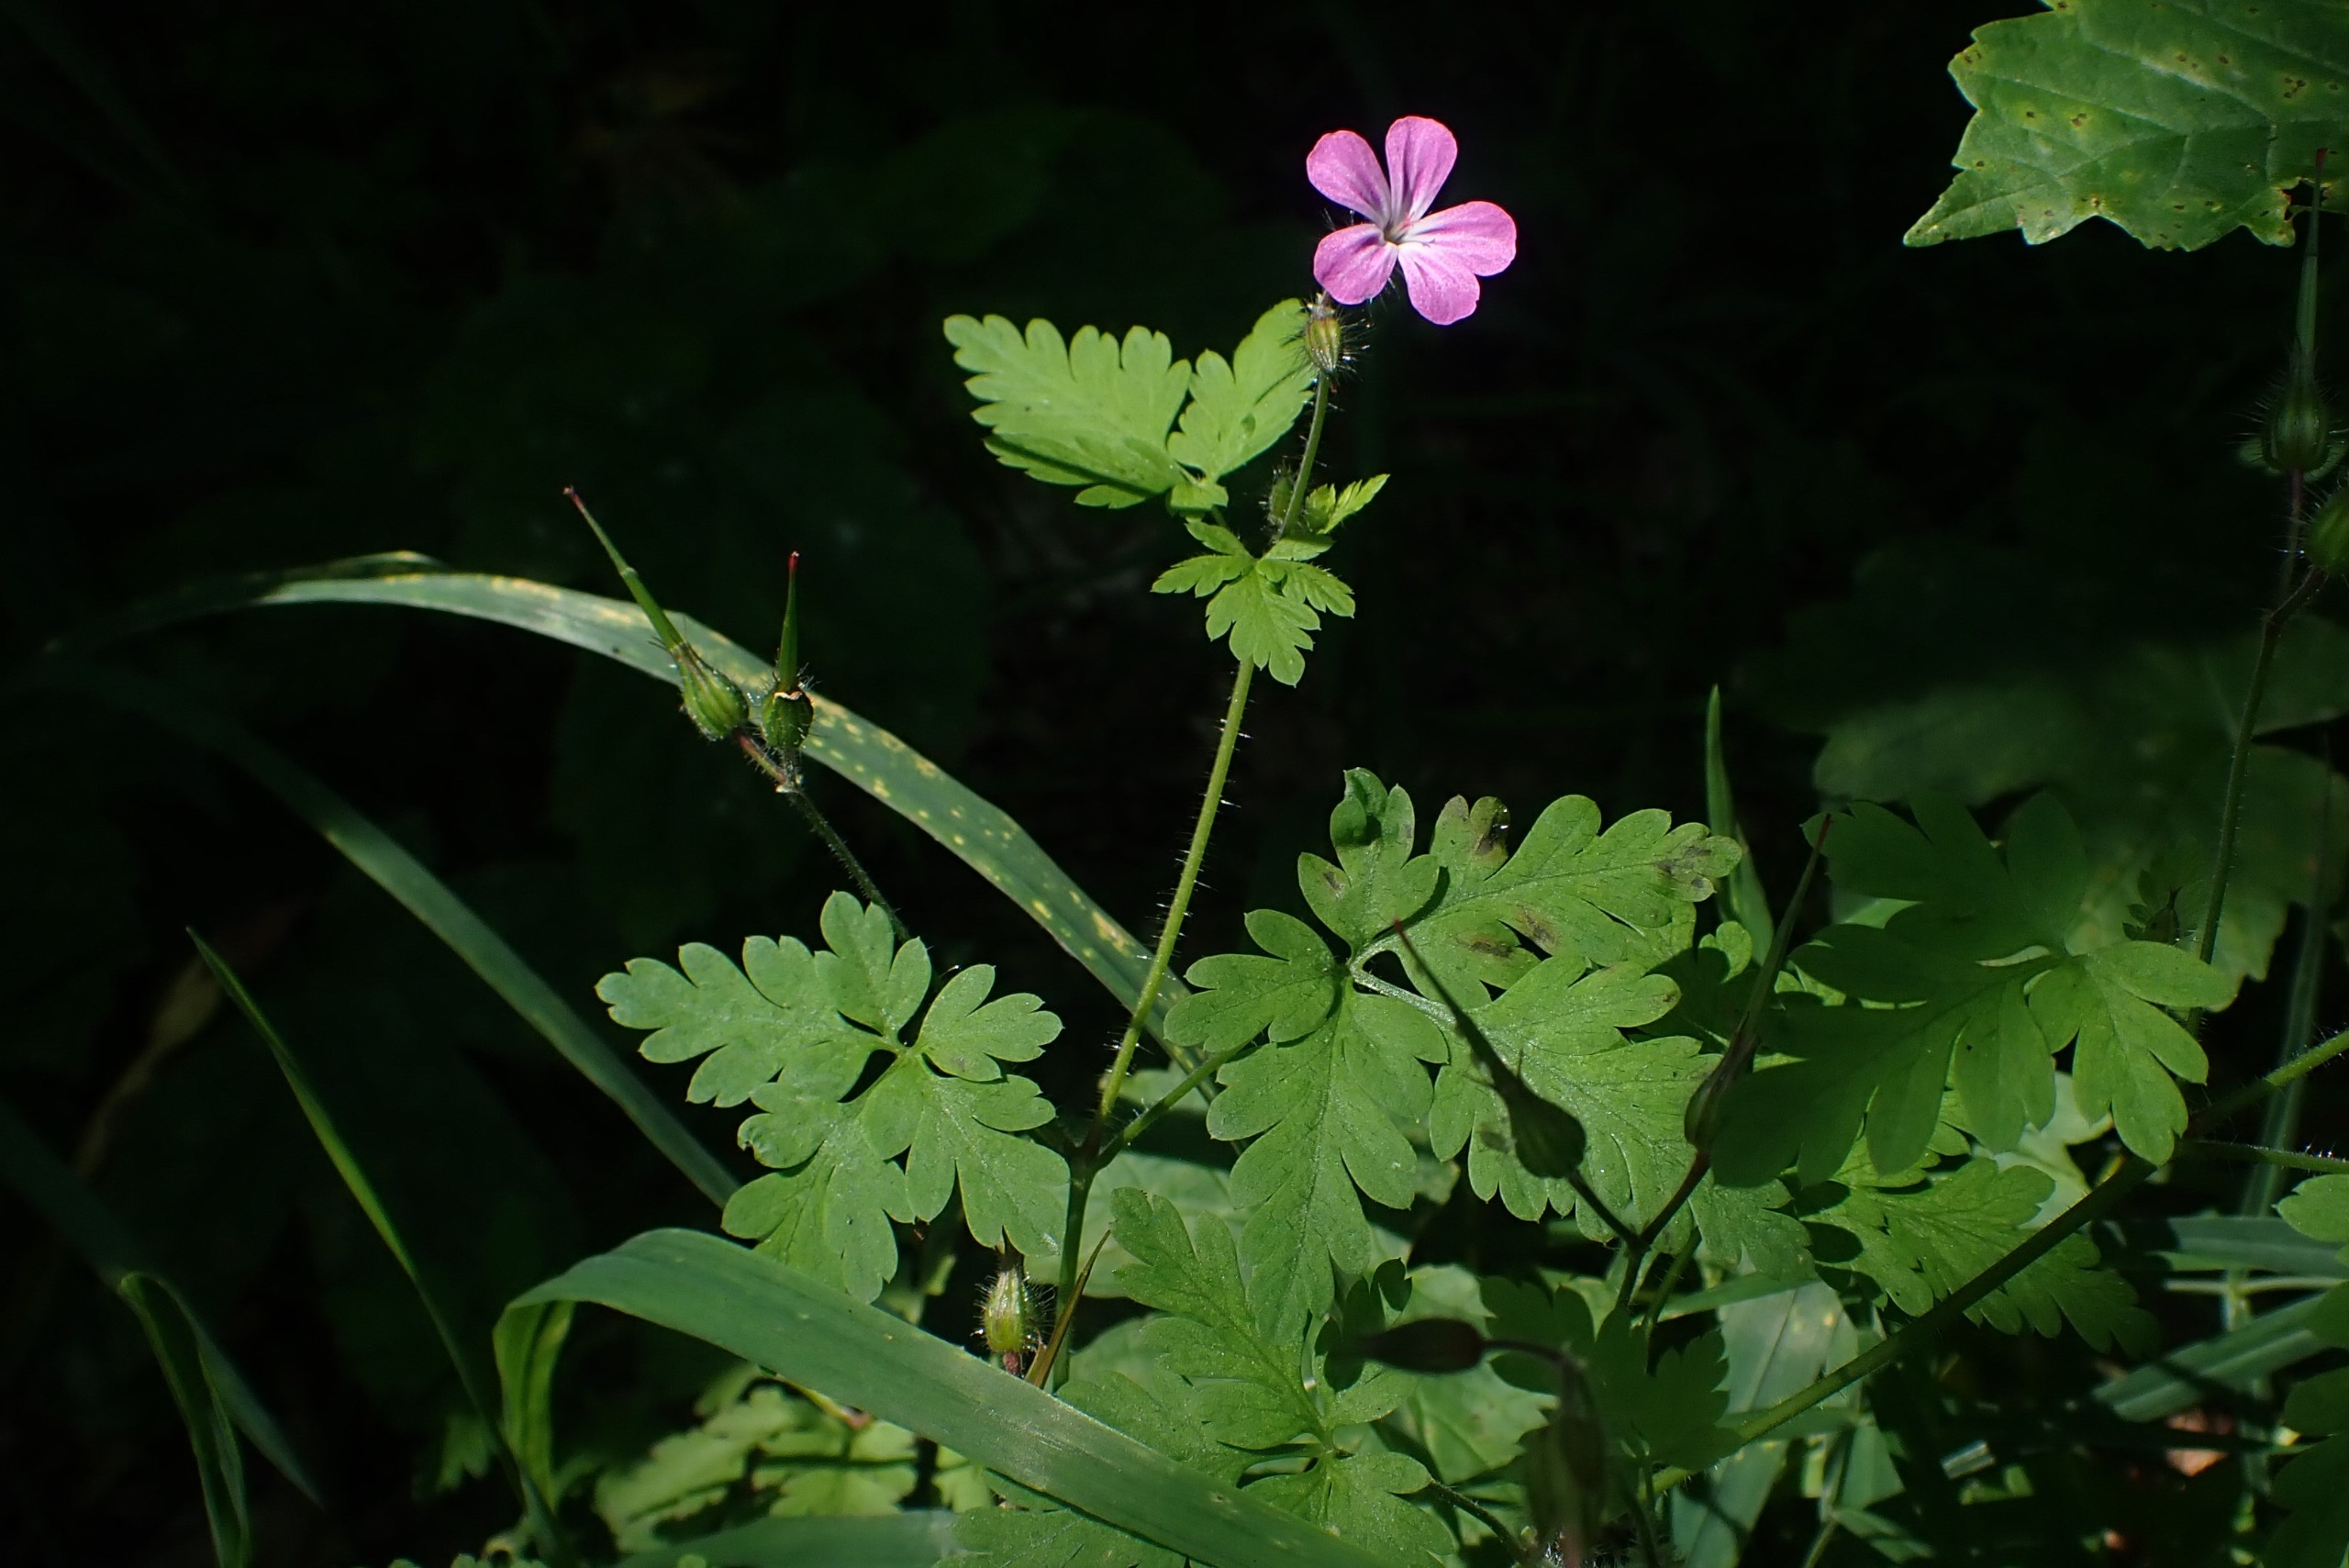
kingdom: Plantae
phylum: Tracheophyta
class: Magnoliopsida
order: Geraniales
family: Geraniaceae
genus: Geranium
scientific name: Geranium robertianum
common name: Stinkende storkenæb
